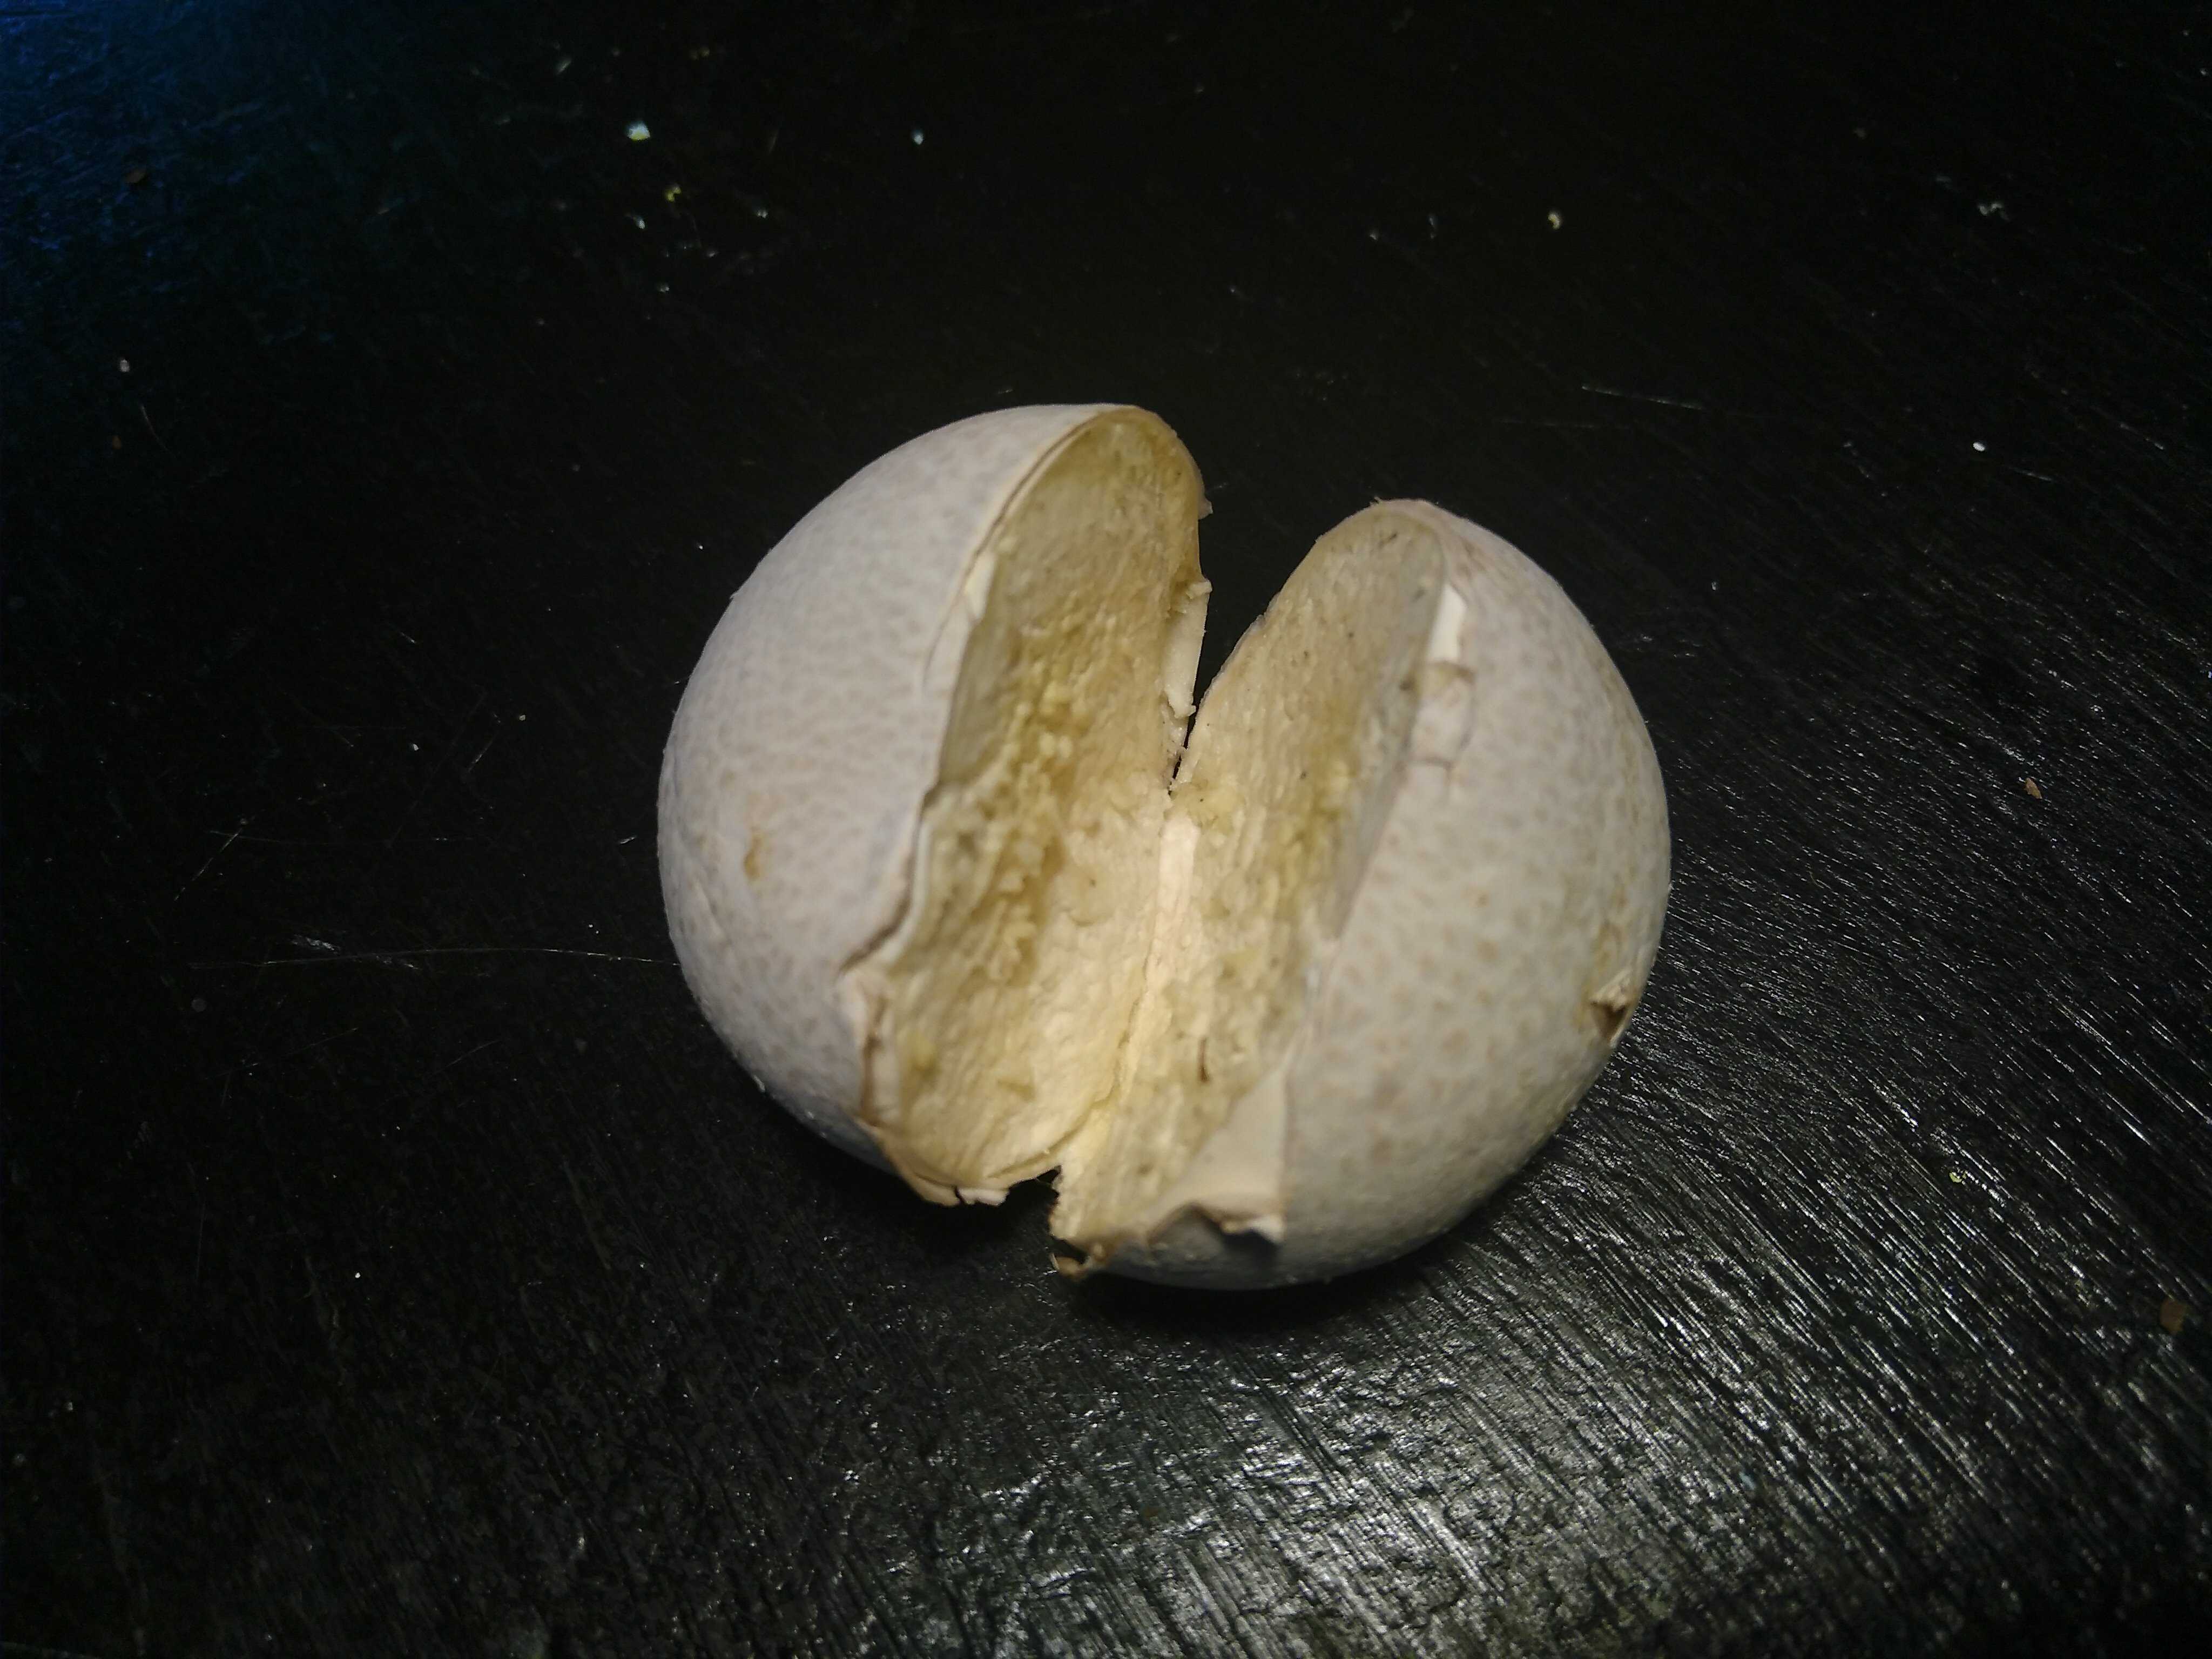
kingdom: Fungi
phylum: Basidiomycota
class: Agaricomycetes
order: Agaricales
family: Lycoperdaceae
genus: Bovista
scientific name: Bovista
